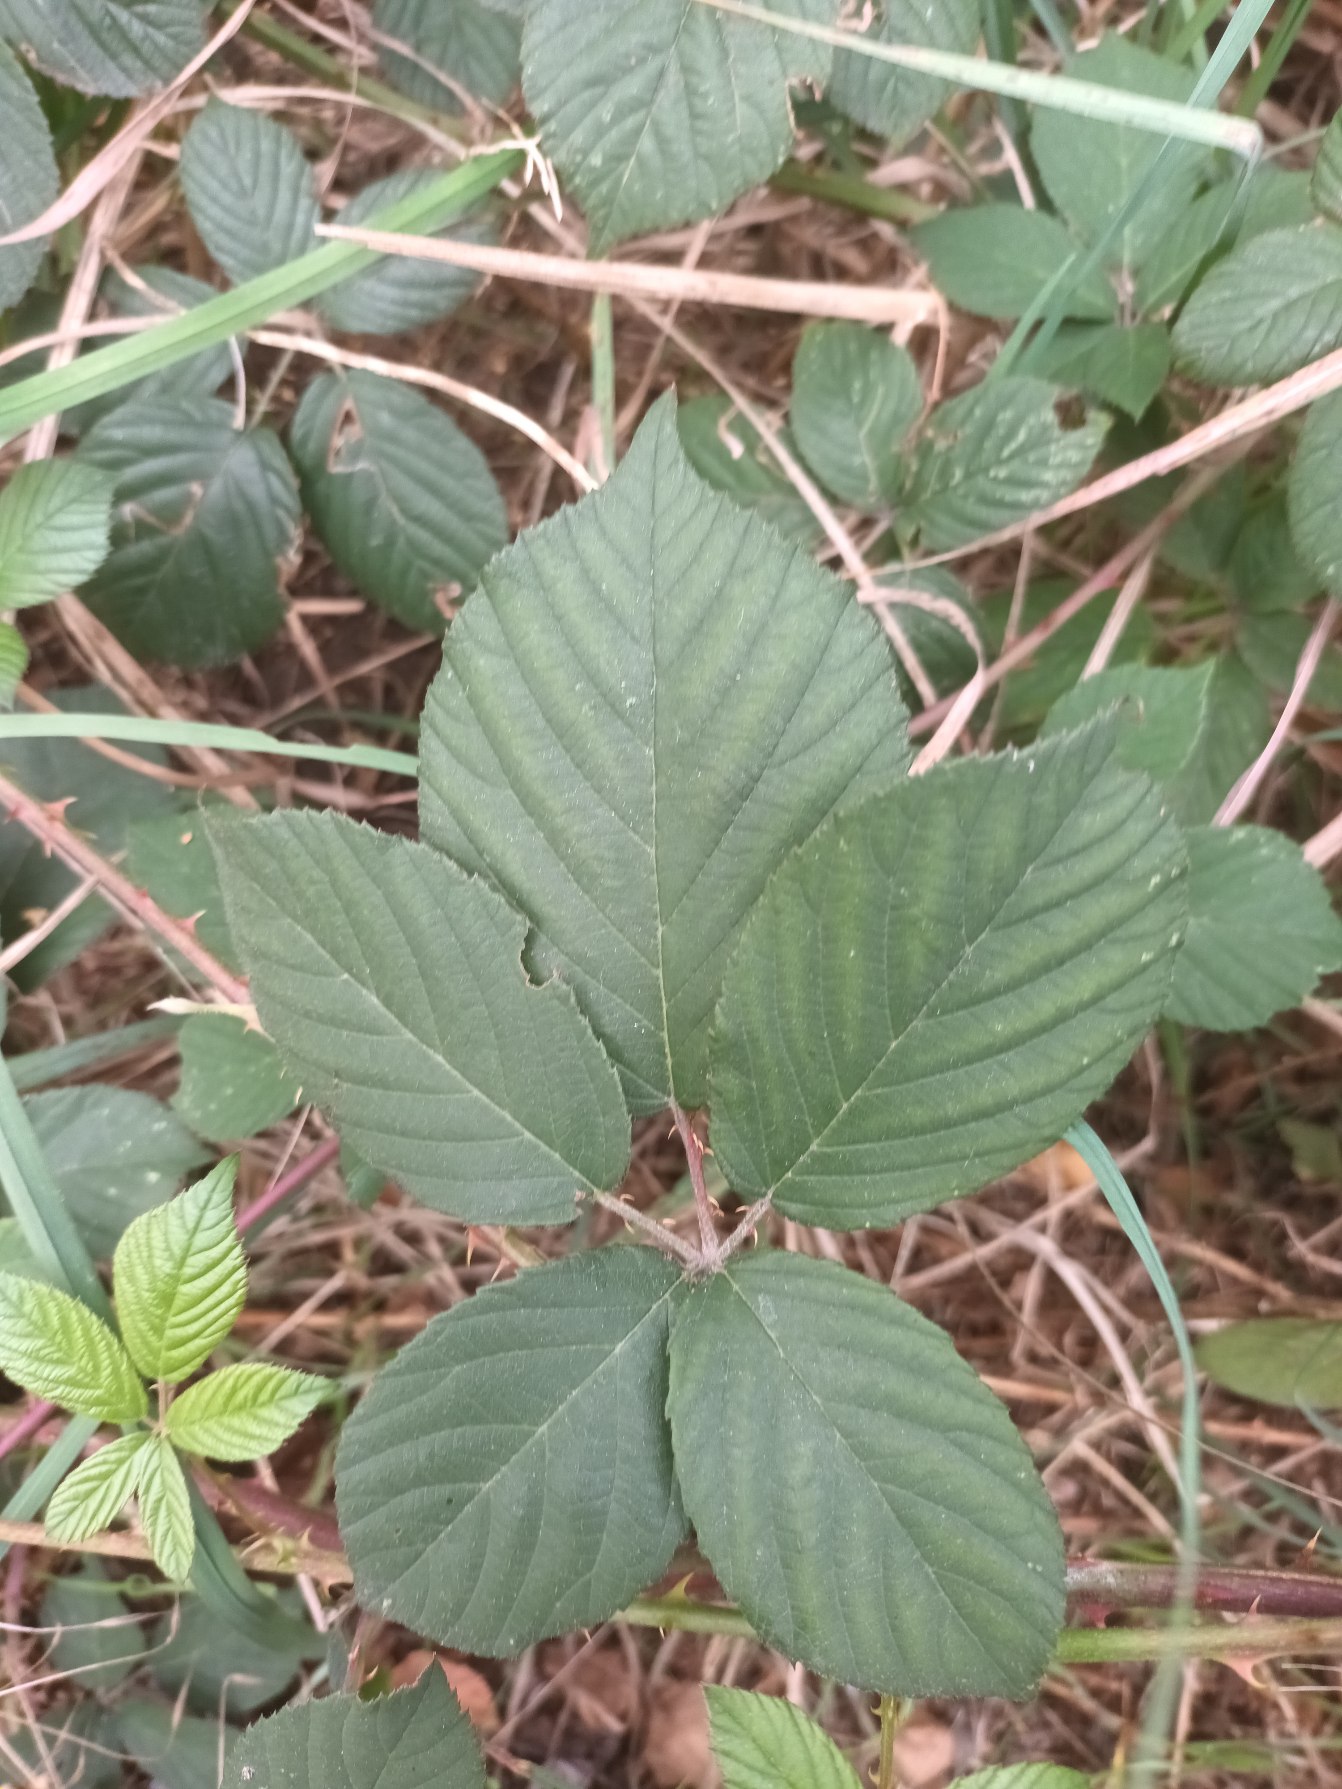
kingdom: Plantae
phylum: Tracheophyta
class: Magnoliopsida
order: Rosales
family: Rosaceae
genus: Rubus
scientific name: Rubus insularis
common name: Lodden brombær
